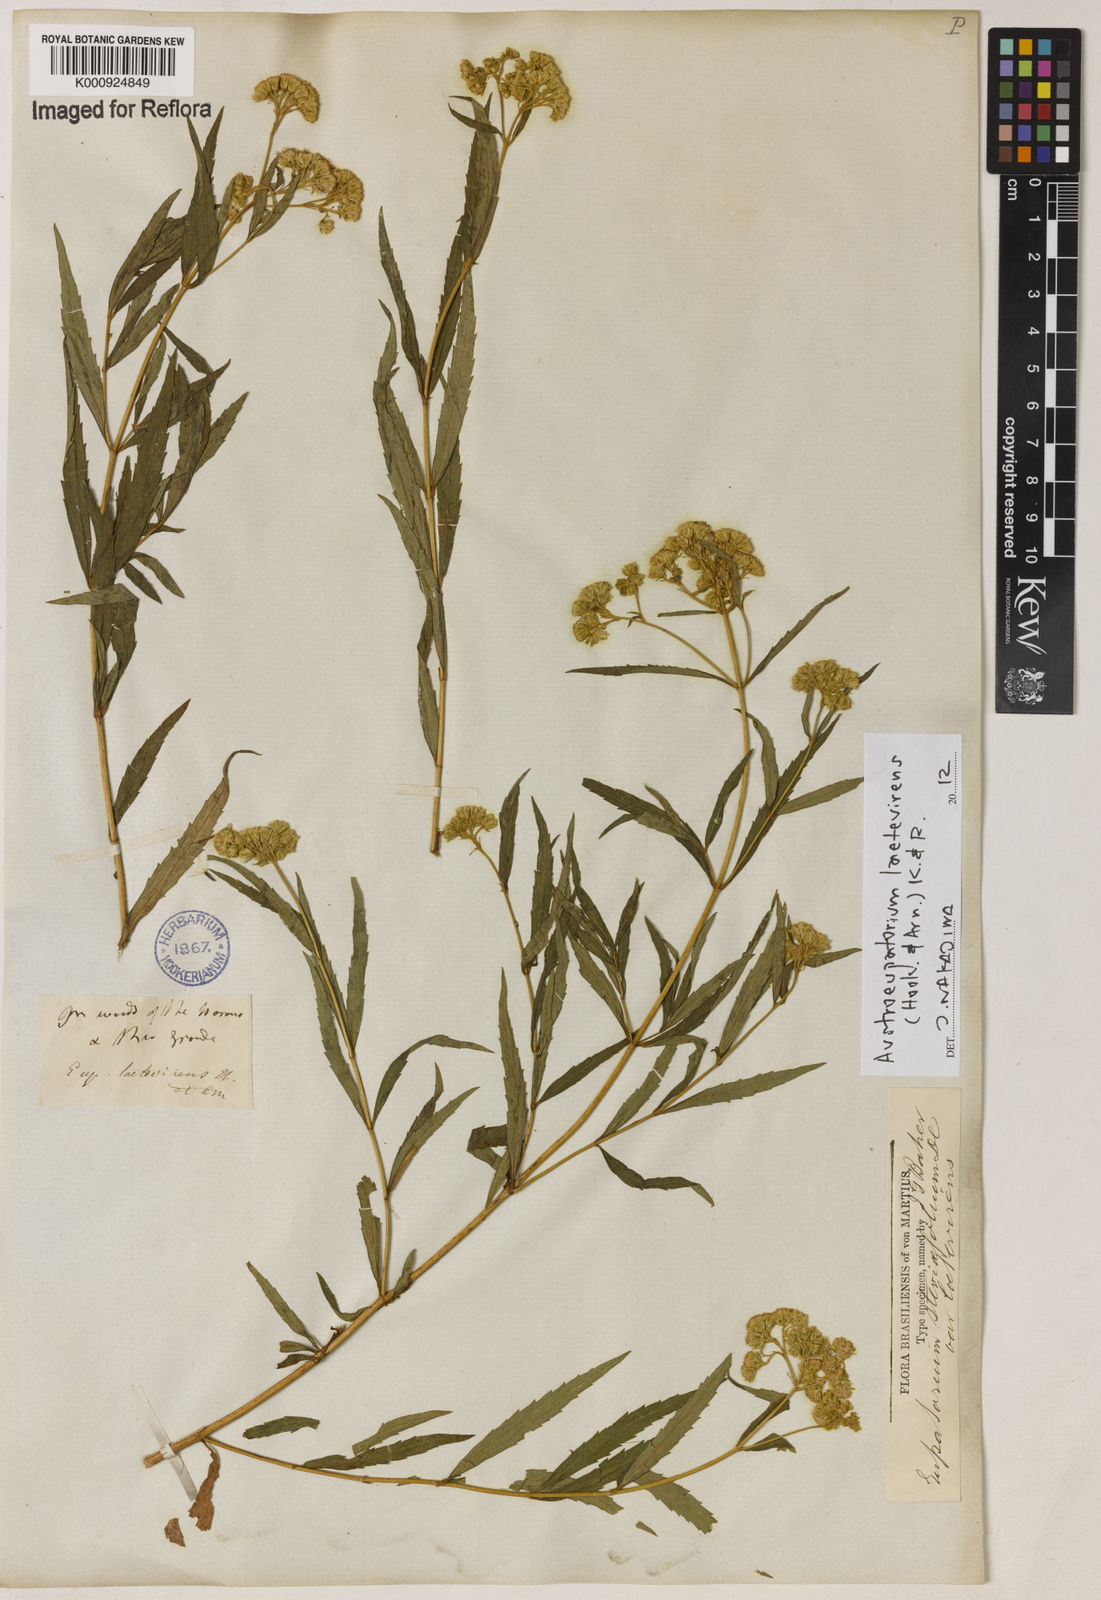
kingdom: Plantae
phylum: Tracheophyta
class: Magnoliopsida
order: Asterales
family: Asteraceae
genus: Austroeupatorium
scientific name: Austroeupatorium laetevirens
